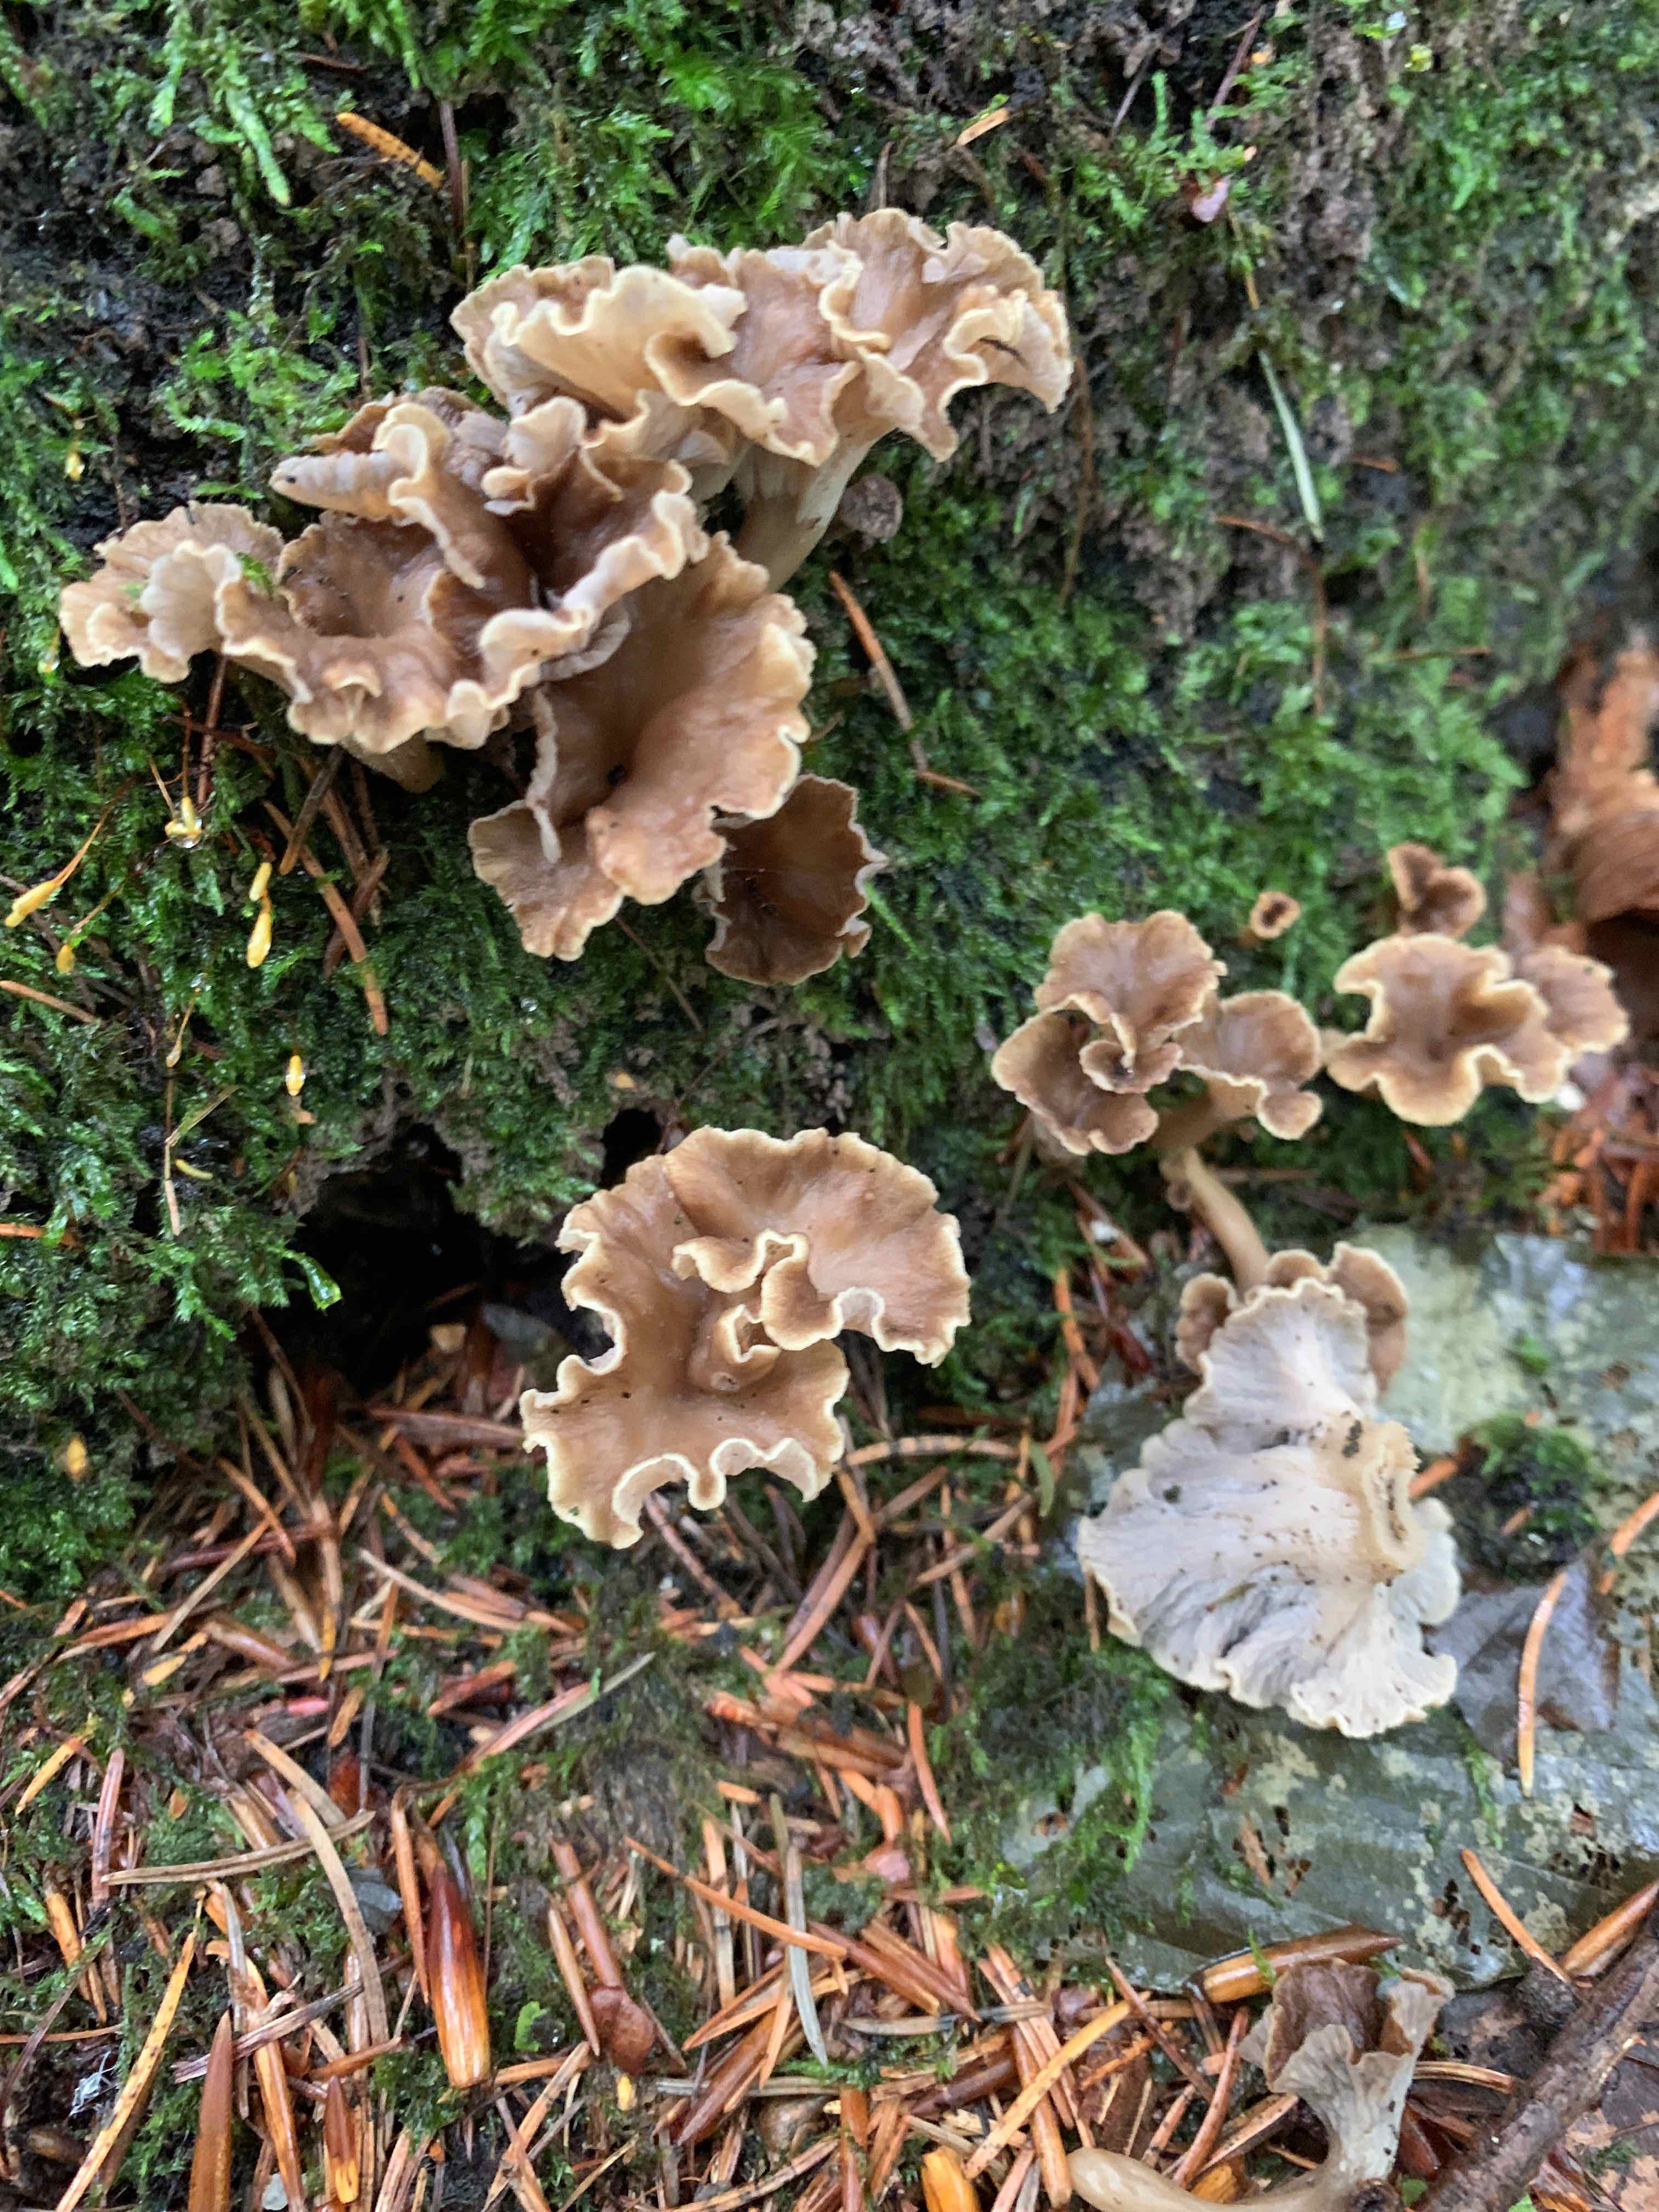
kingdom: Fungi
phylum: Basidiomycota
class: Agaricomycetes
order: Cantharellales
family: Hydnaceae
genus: Craterellus
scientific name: Craterellus undulatus
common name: liden kantarel
